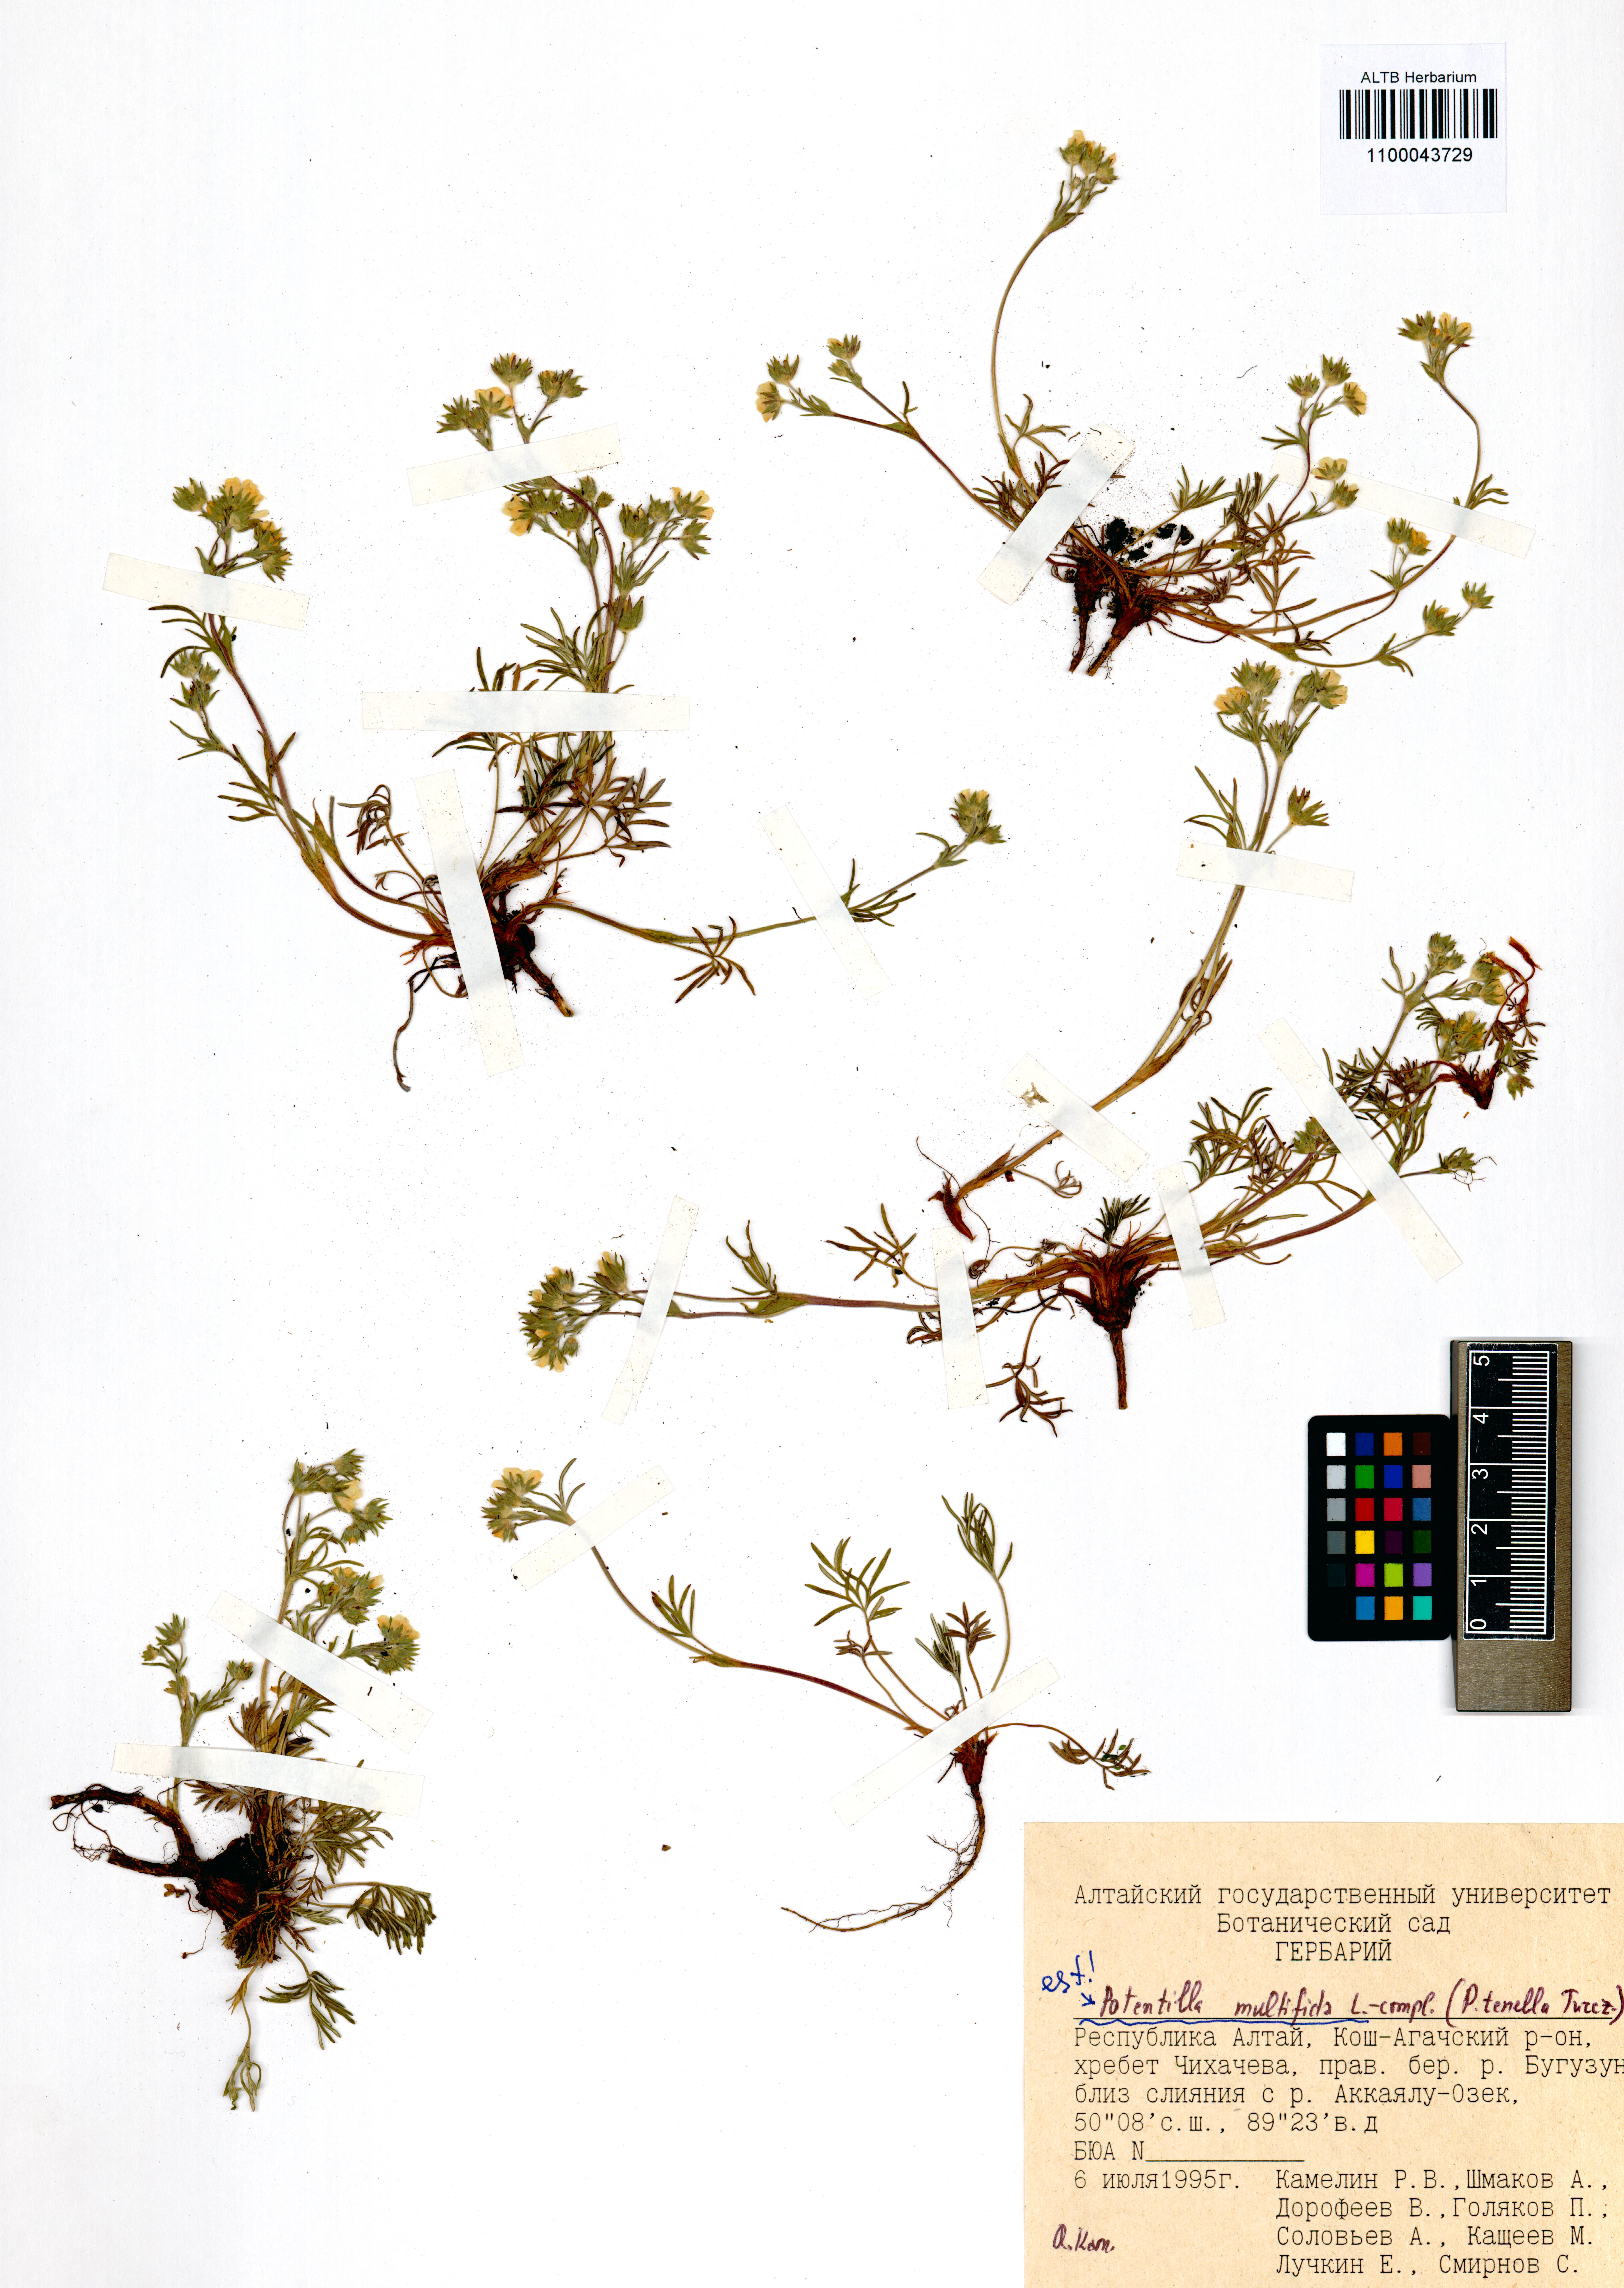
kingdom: Plantae
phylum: Tracheophyta
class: Magnoliopsida
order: Rosales
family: Rosaceae
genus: Potentilla
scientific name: Potentilla multifida
